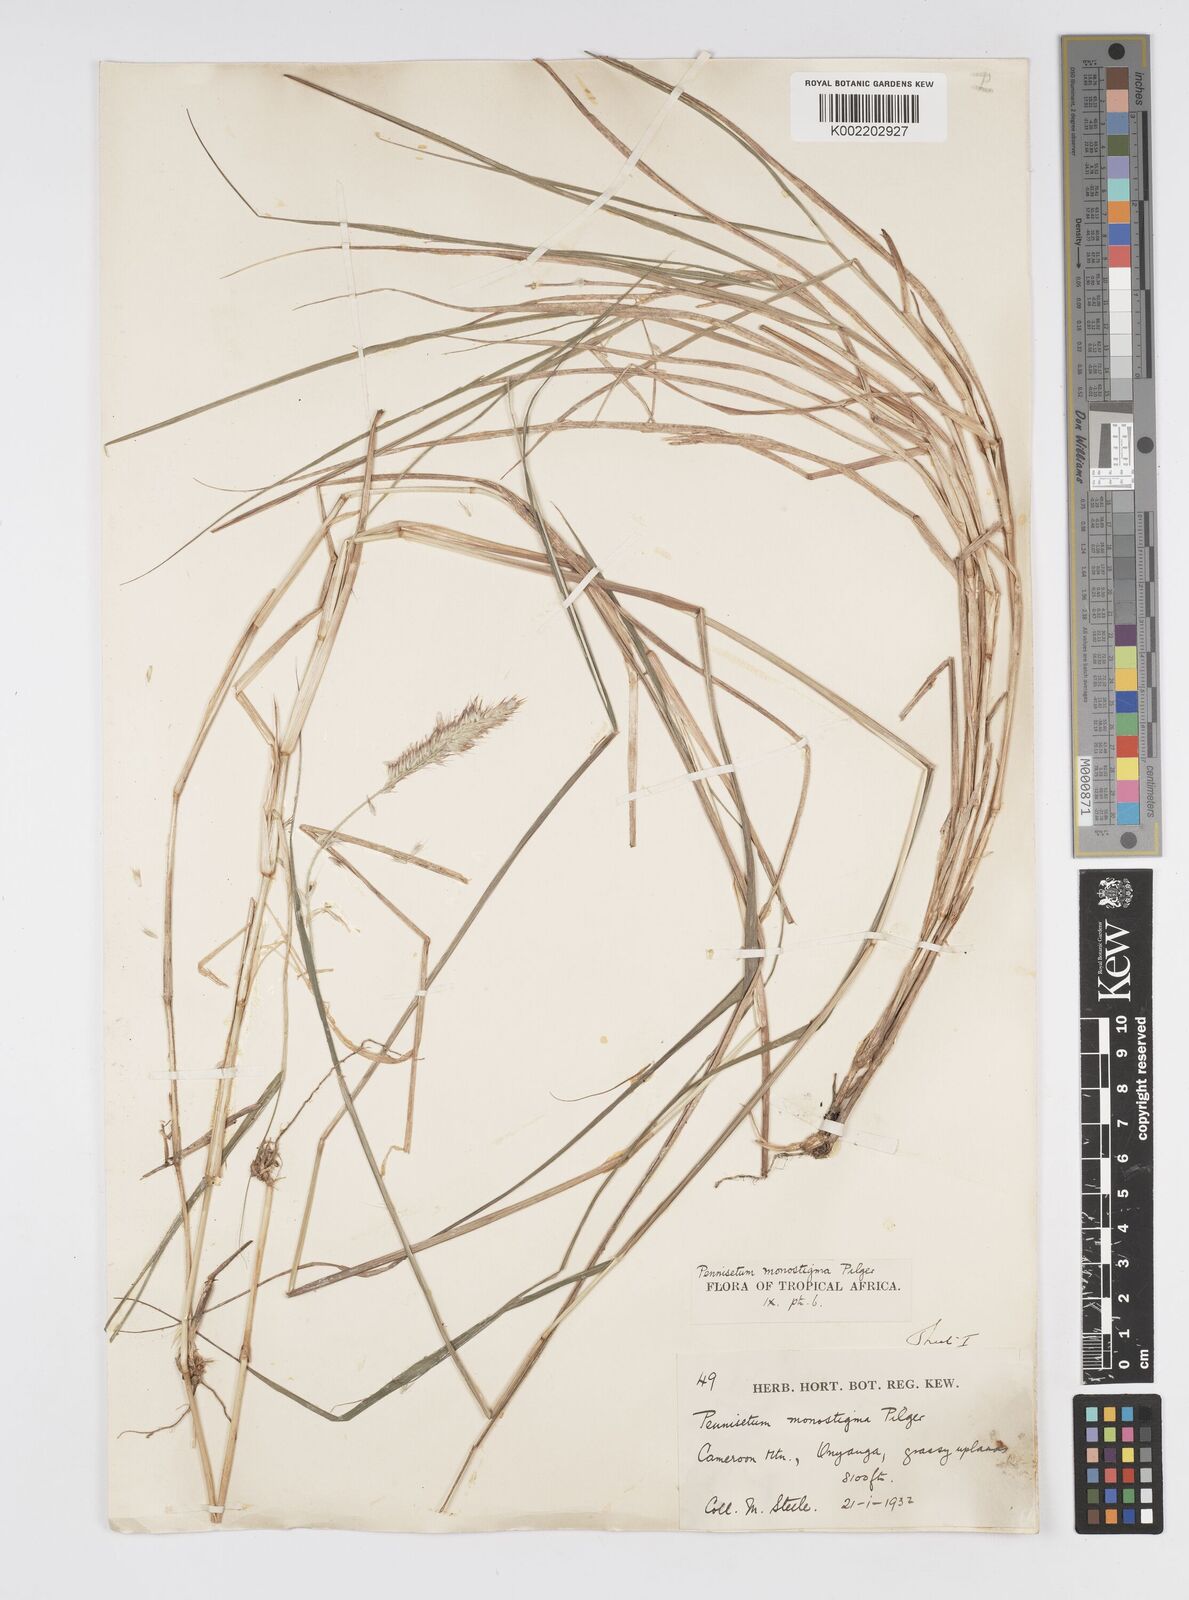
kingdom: Plantae
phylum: Tracheophyta
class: Liliopsida
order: Poales
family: Poaceae
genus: Cenchrus
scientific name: Cenchrus monostigma
